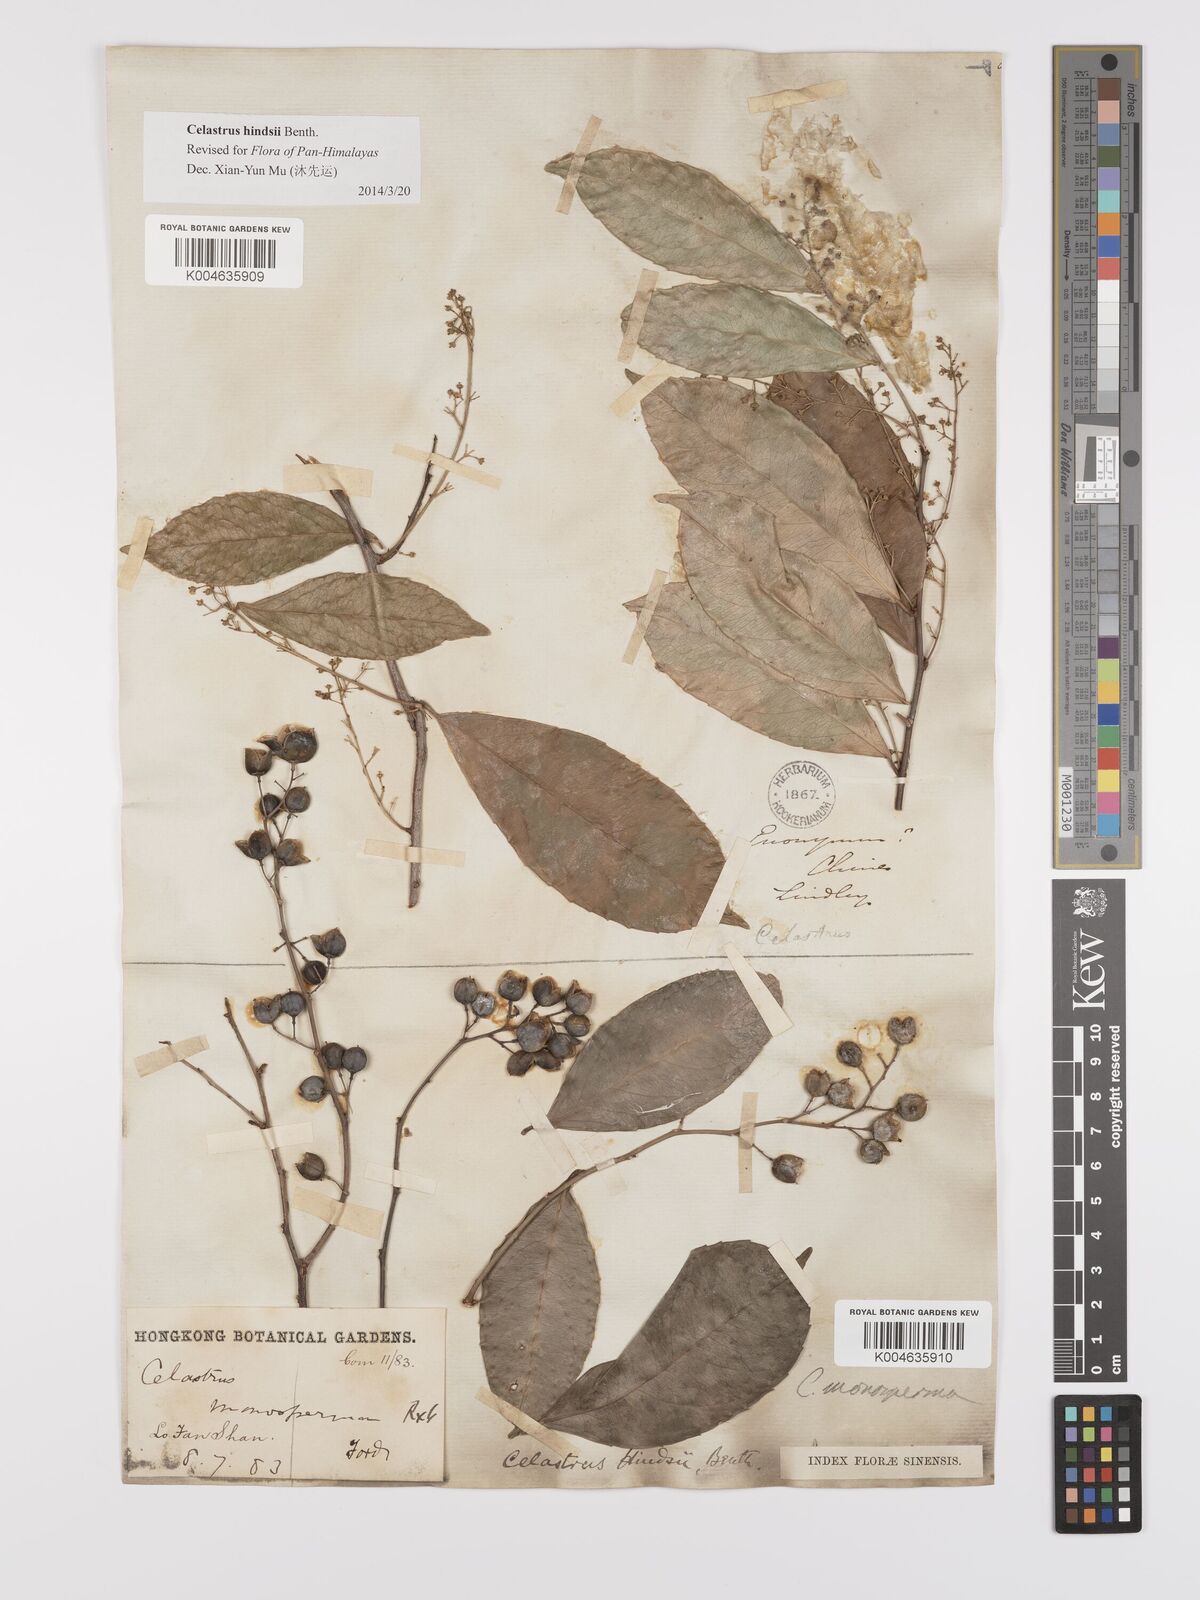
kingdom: Plantae
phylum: Tracheophyta
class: Magnoliopsida
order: Celastrales
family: Celastraceae
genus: Celastrus
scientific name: Celastrus hindsii
